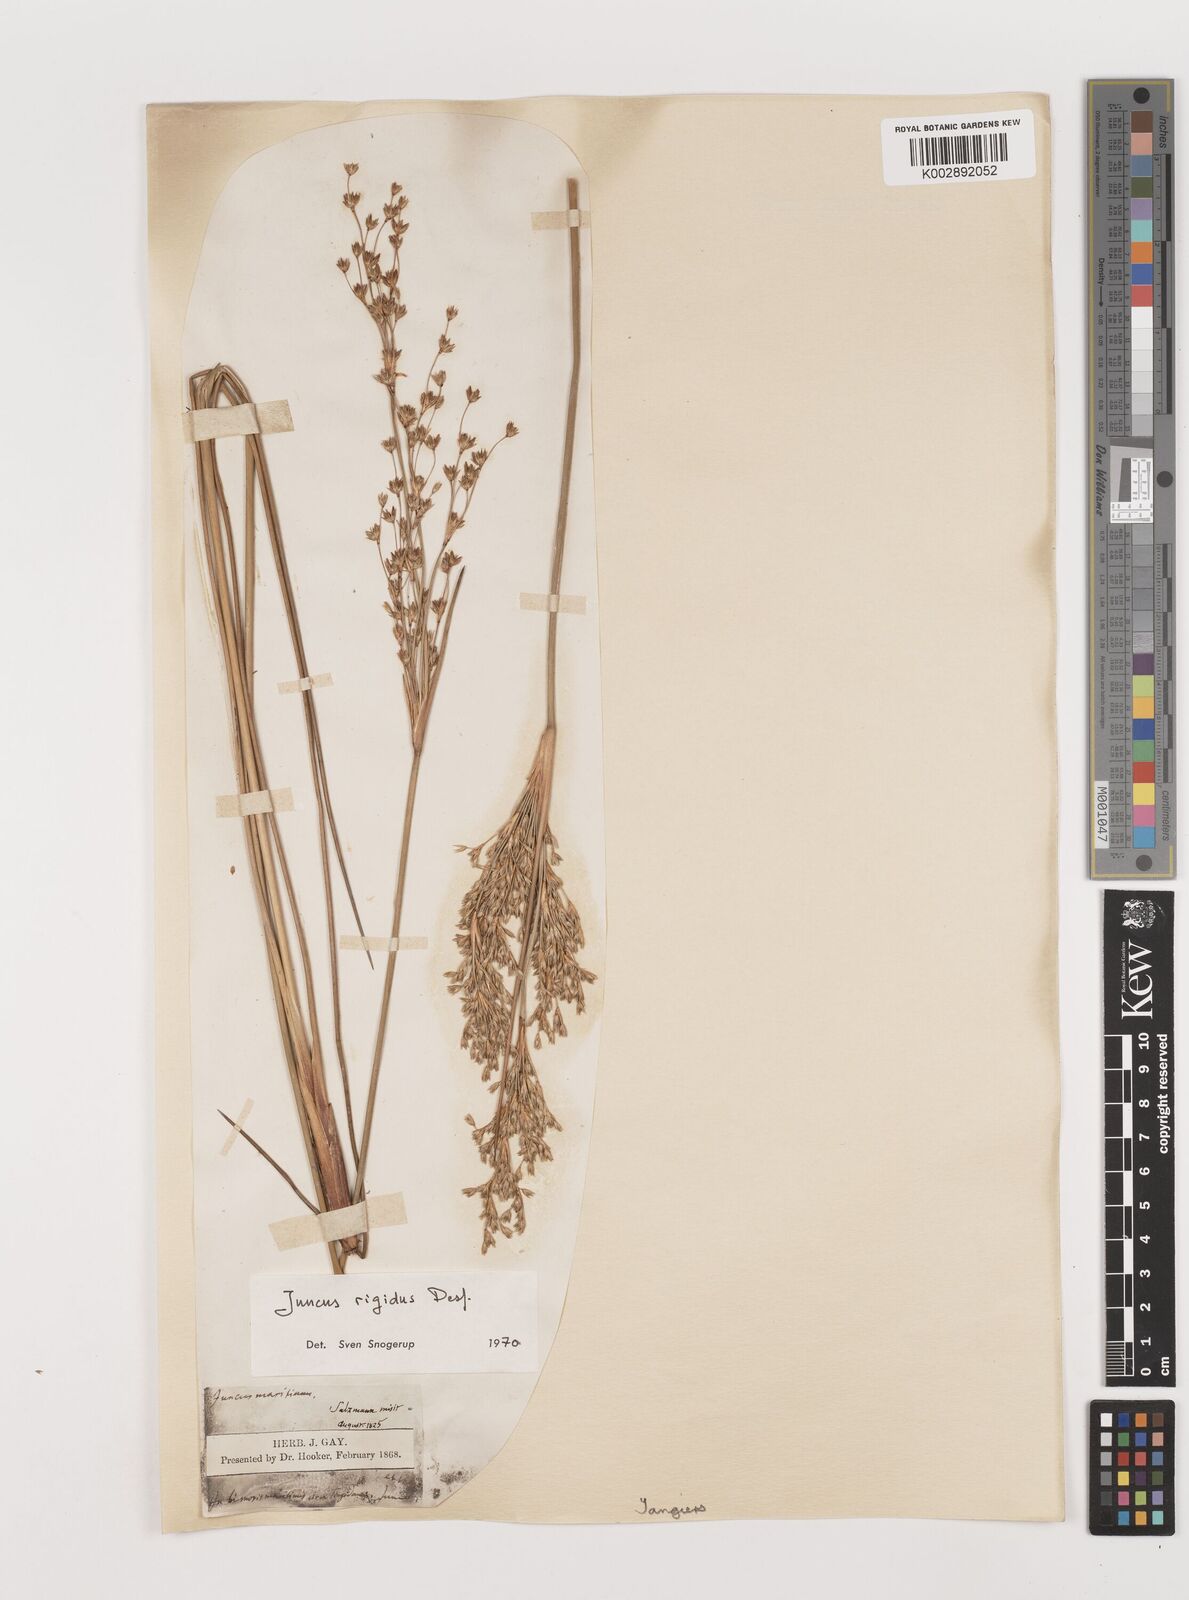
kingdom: Plantae
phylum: Tracheophyta
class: Liliopsida
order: Poales
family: Juncaceae
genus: Juncus
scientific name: Juncus rigidus
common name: Hard sea rush
